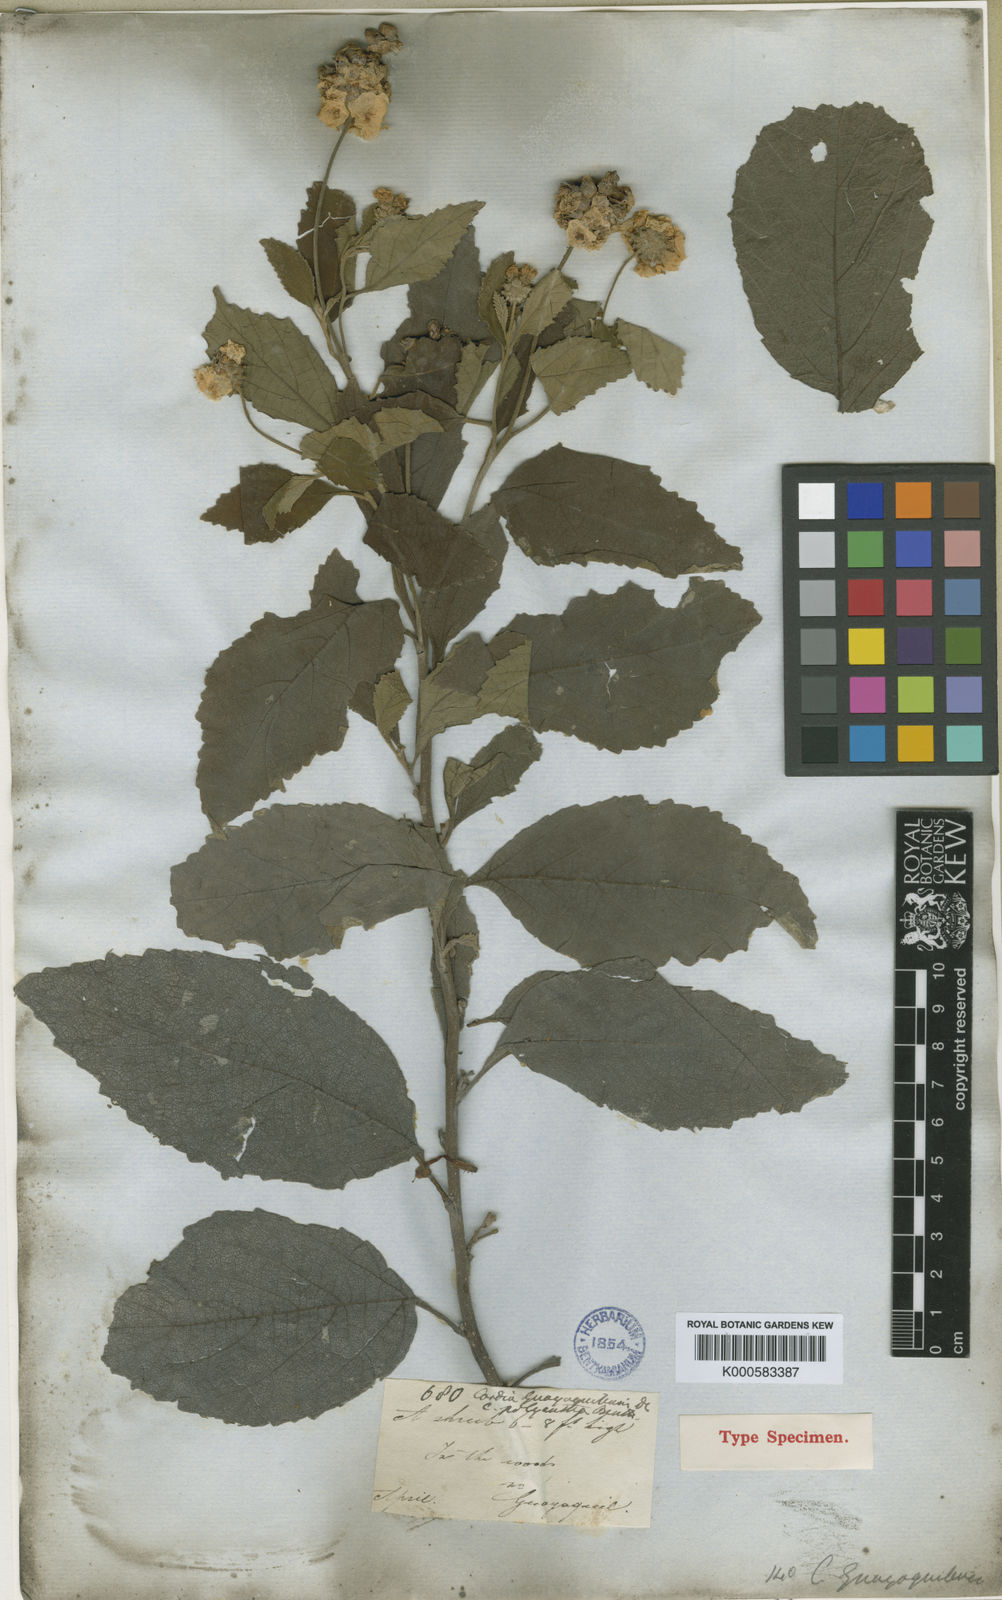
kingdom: Plantae
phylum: Tracheophyta
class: Magnoliopsida
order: Boraginales
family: Cordiaceae
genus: Varronia
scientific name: Varronia macrocephala
